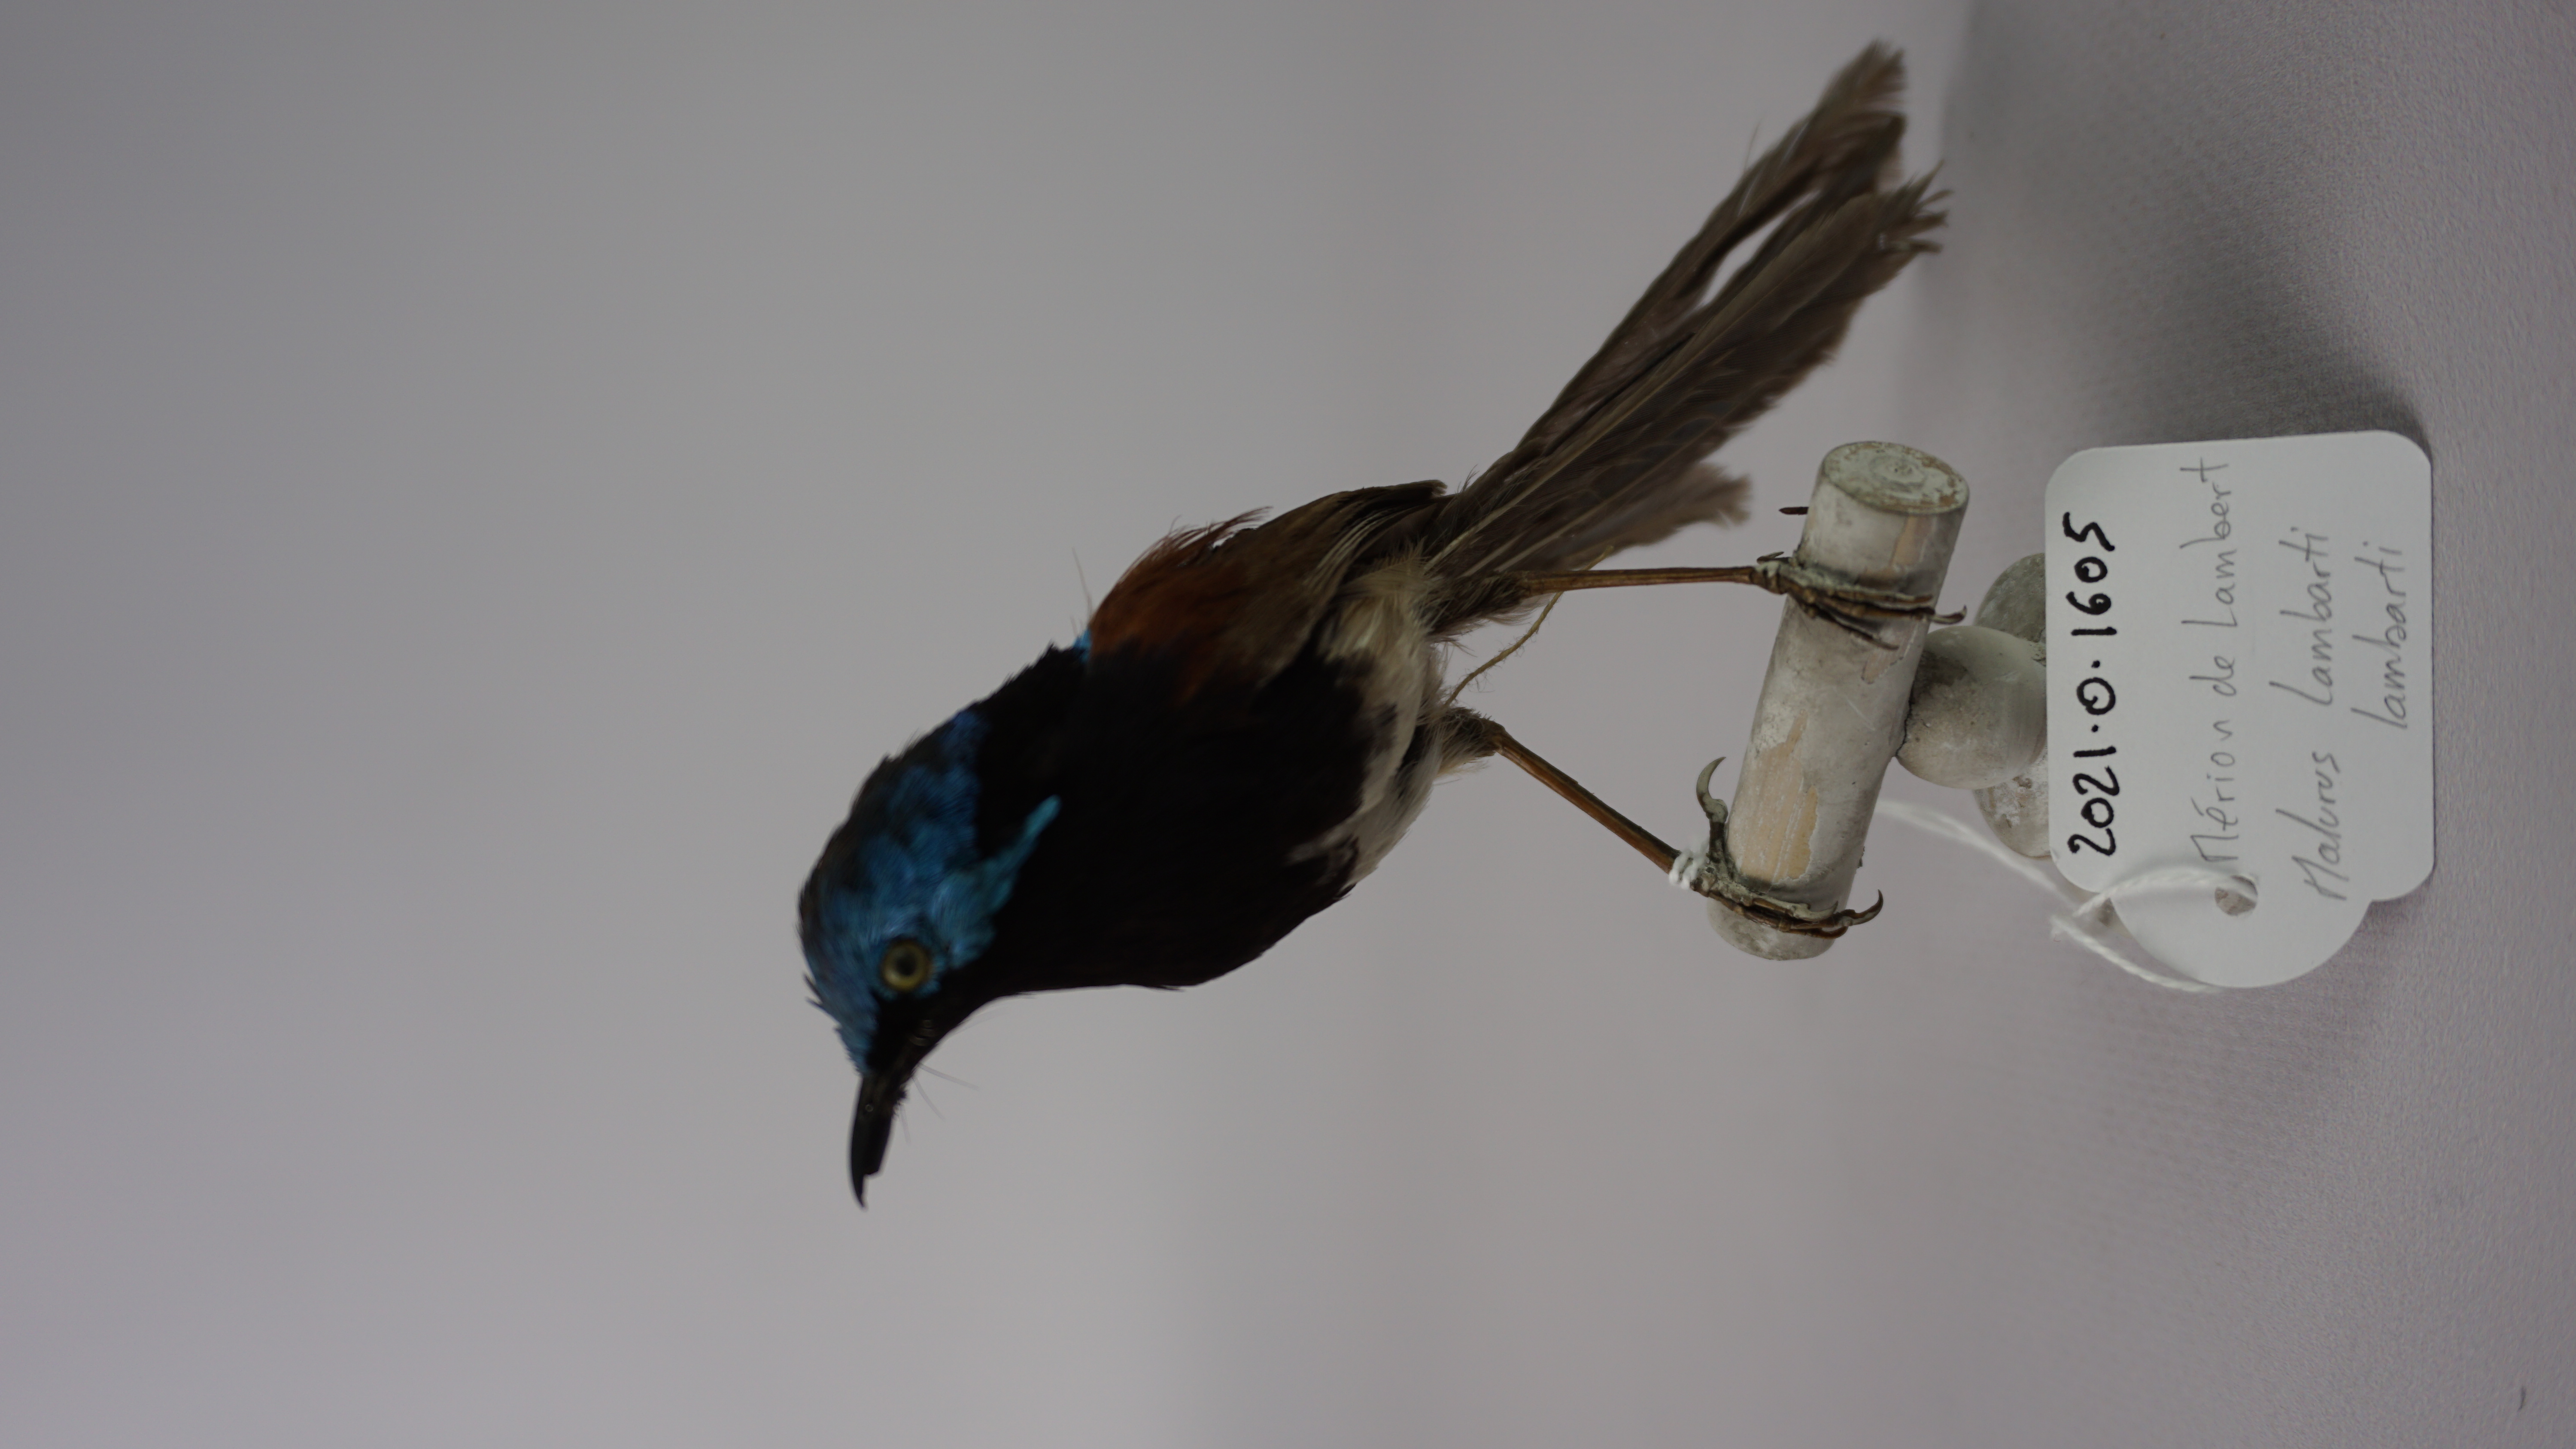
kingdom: Animalia
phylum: Chordata
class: Aves
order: Passeriformes
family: Maluridae
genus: Malurus
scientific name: Malurus lamberti
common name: Variegated fairywren
